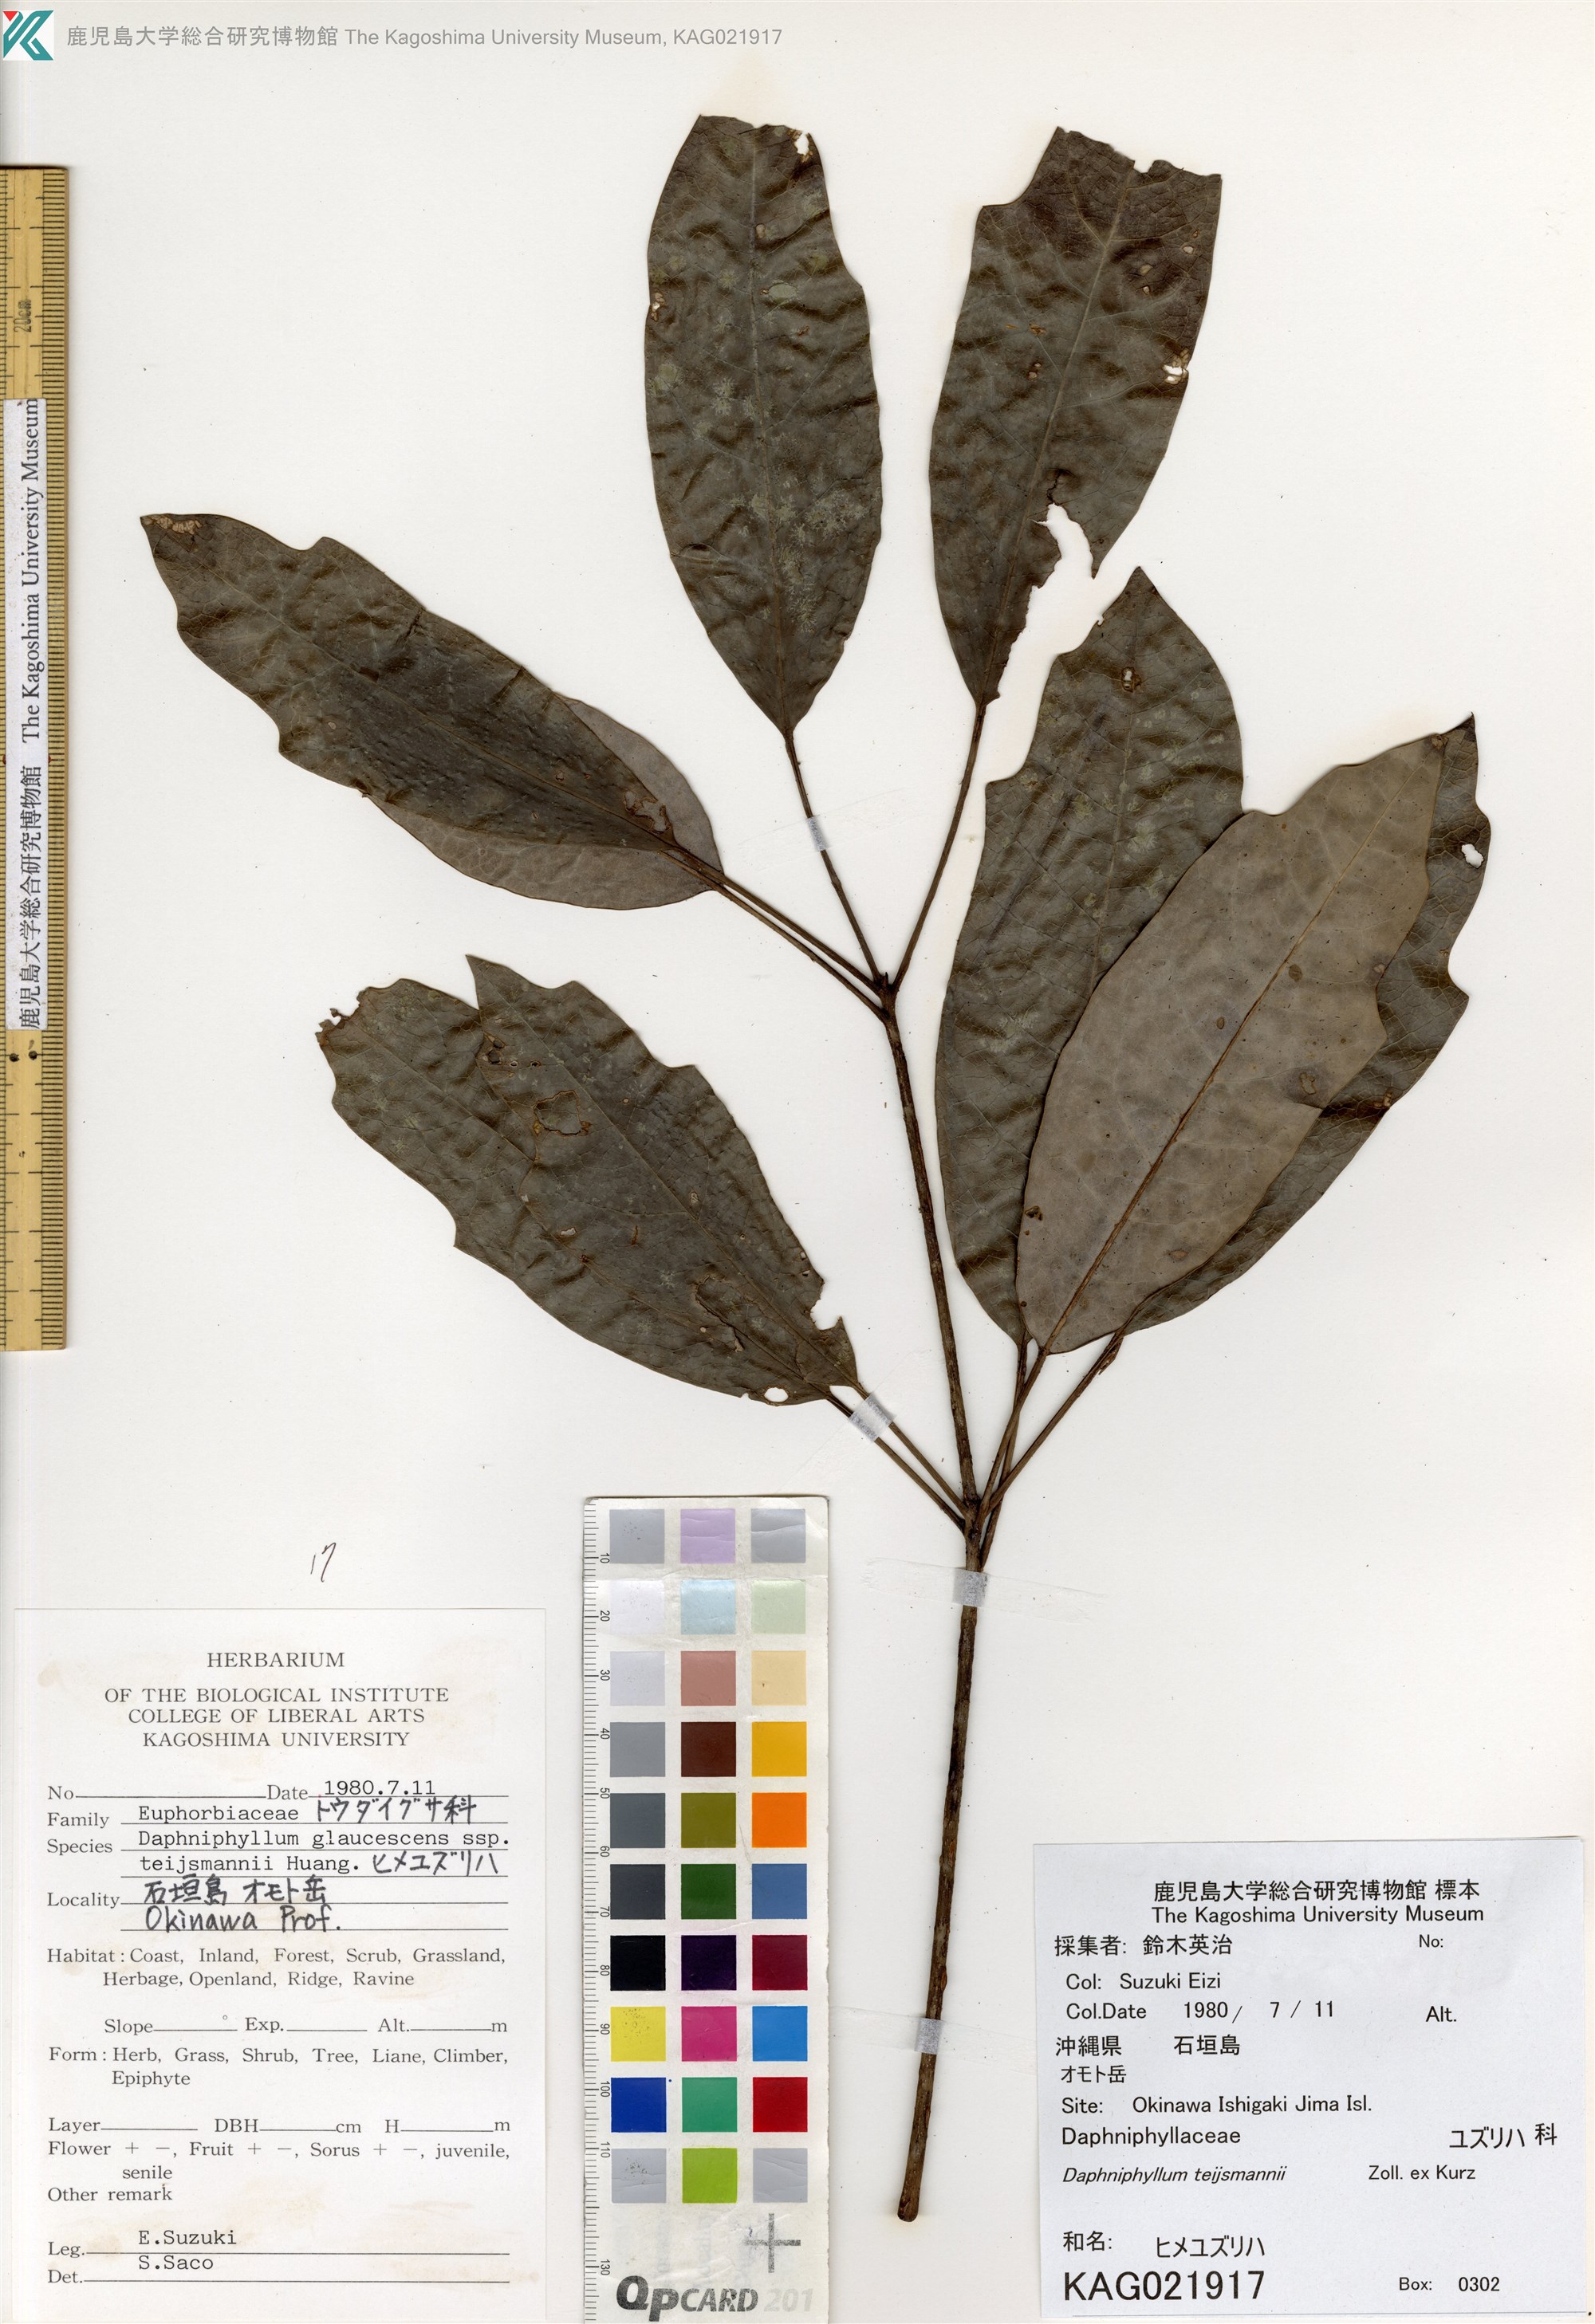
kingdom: Plantae
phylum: Tracheophyta
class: Magnoliopsida
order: Saxifragales
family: Daphniphyllaceae
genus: Daphniphyllum
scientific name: Daphniphyllum teijsmannii
